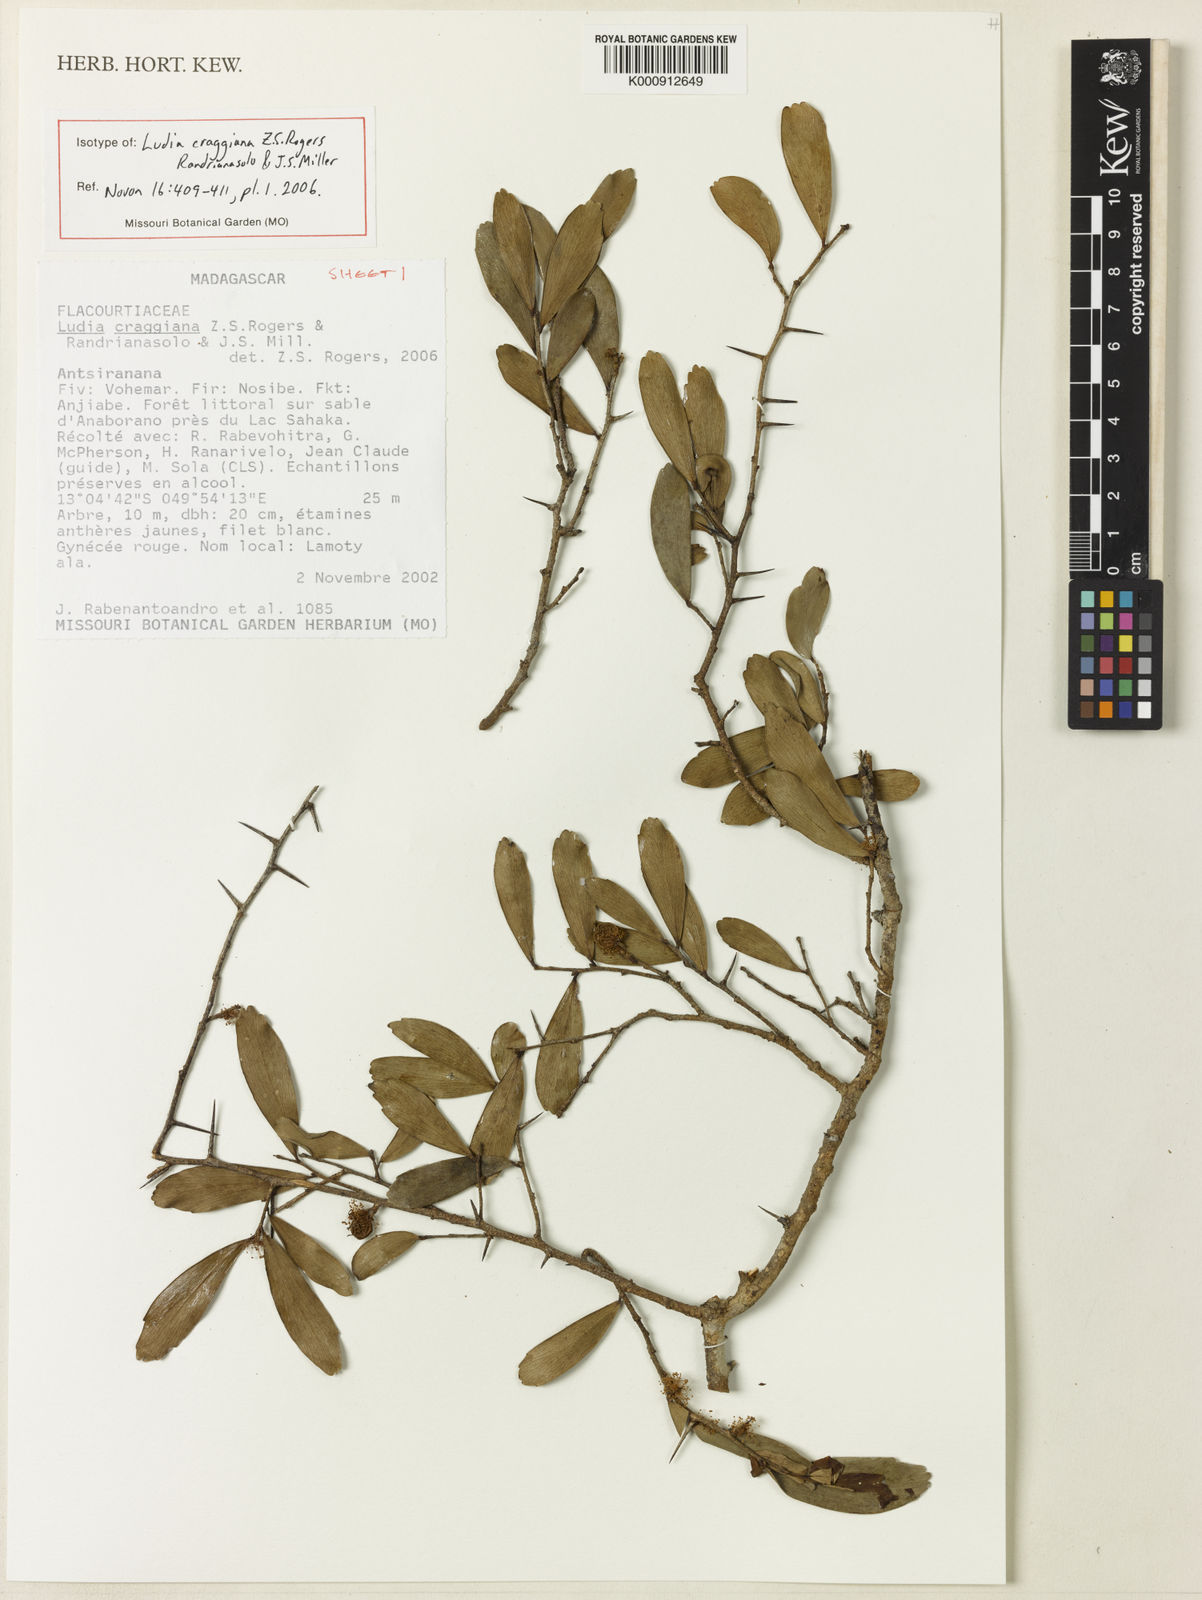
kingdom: Plantae
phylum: Tracheophyta
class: Magnoliopsida
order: Malpighiales
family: Salicaceae
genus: Ludia
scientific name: Ludia craggiana
